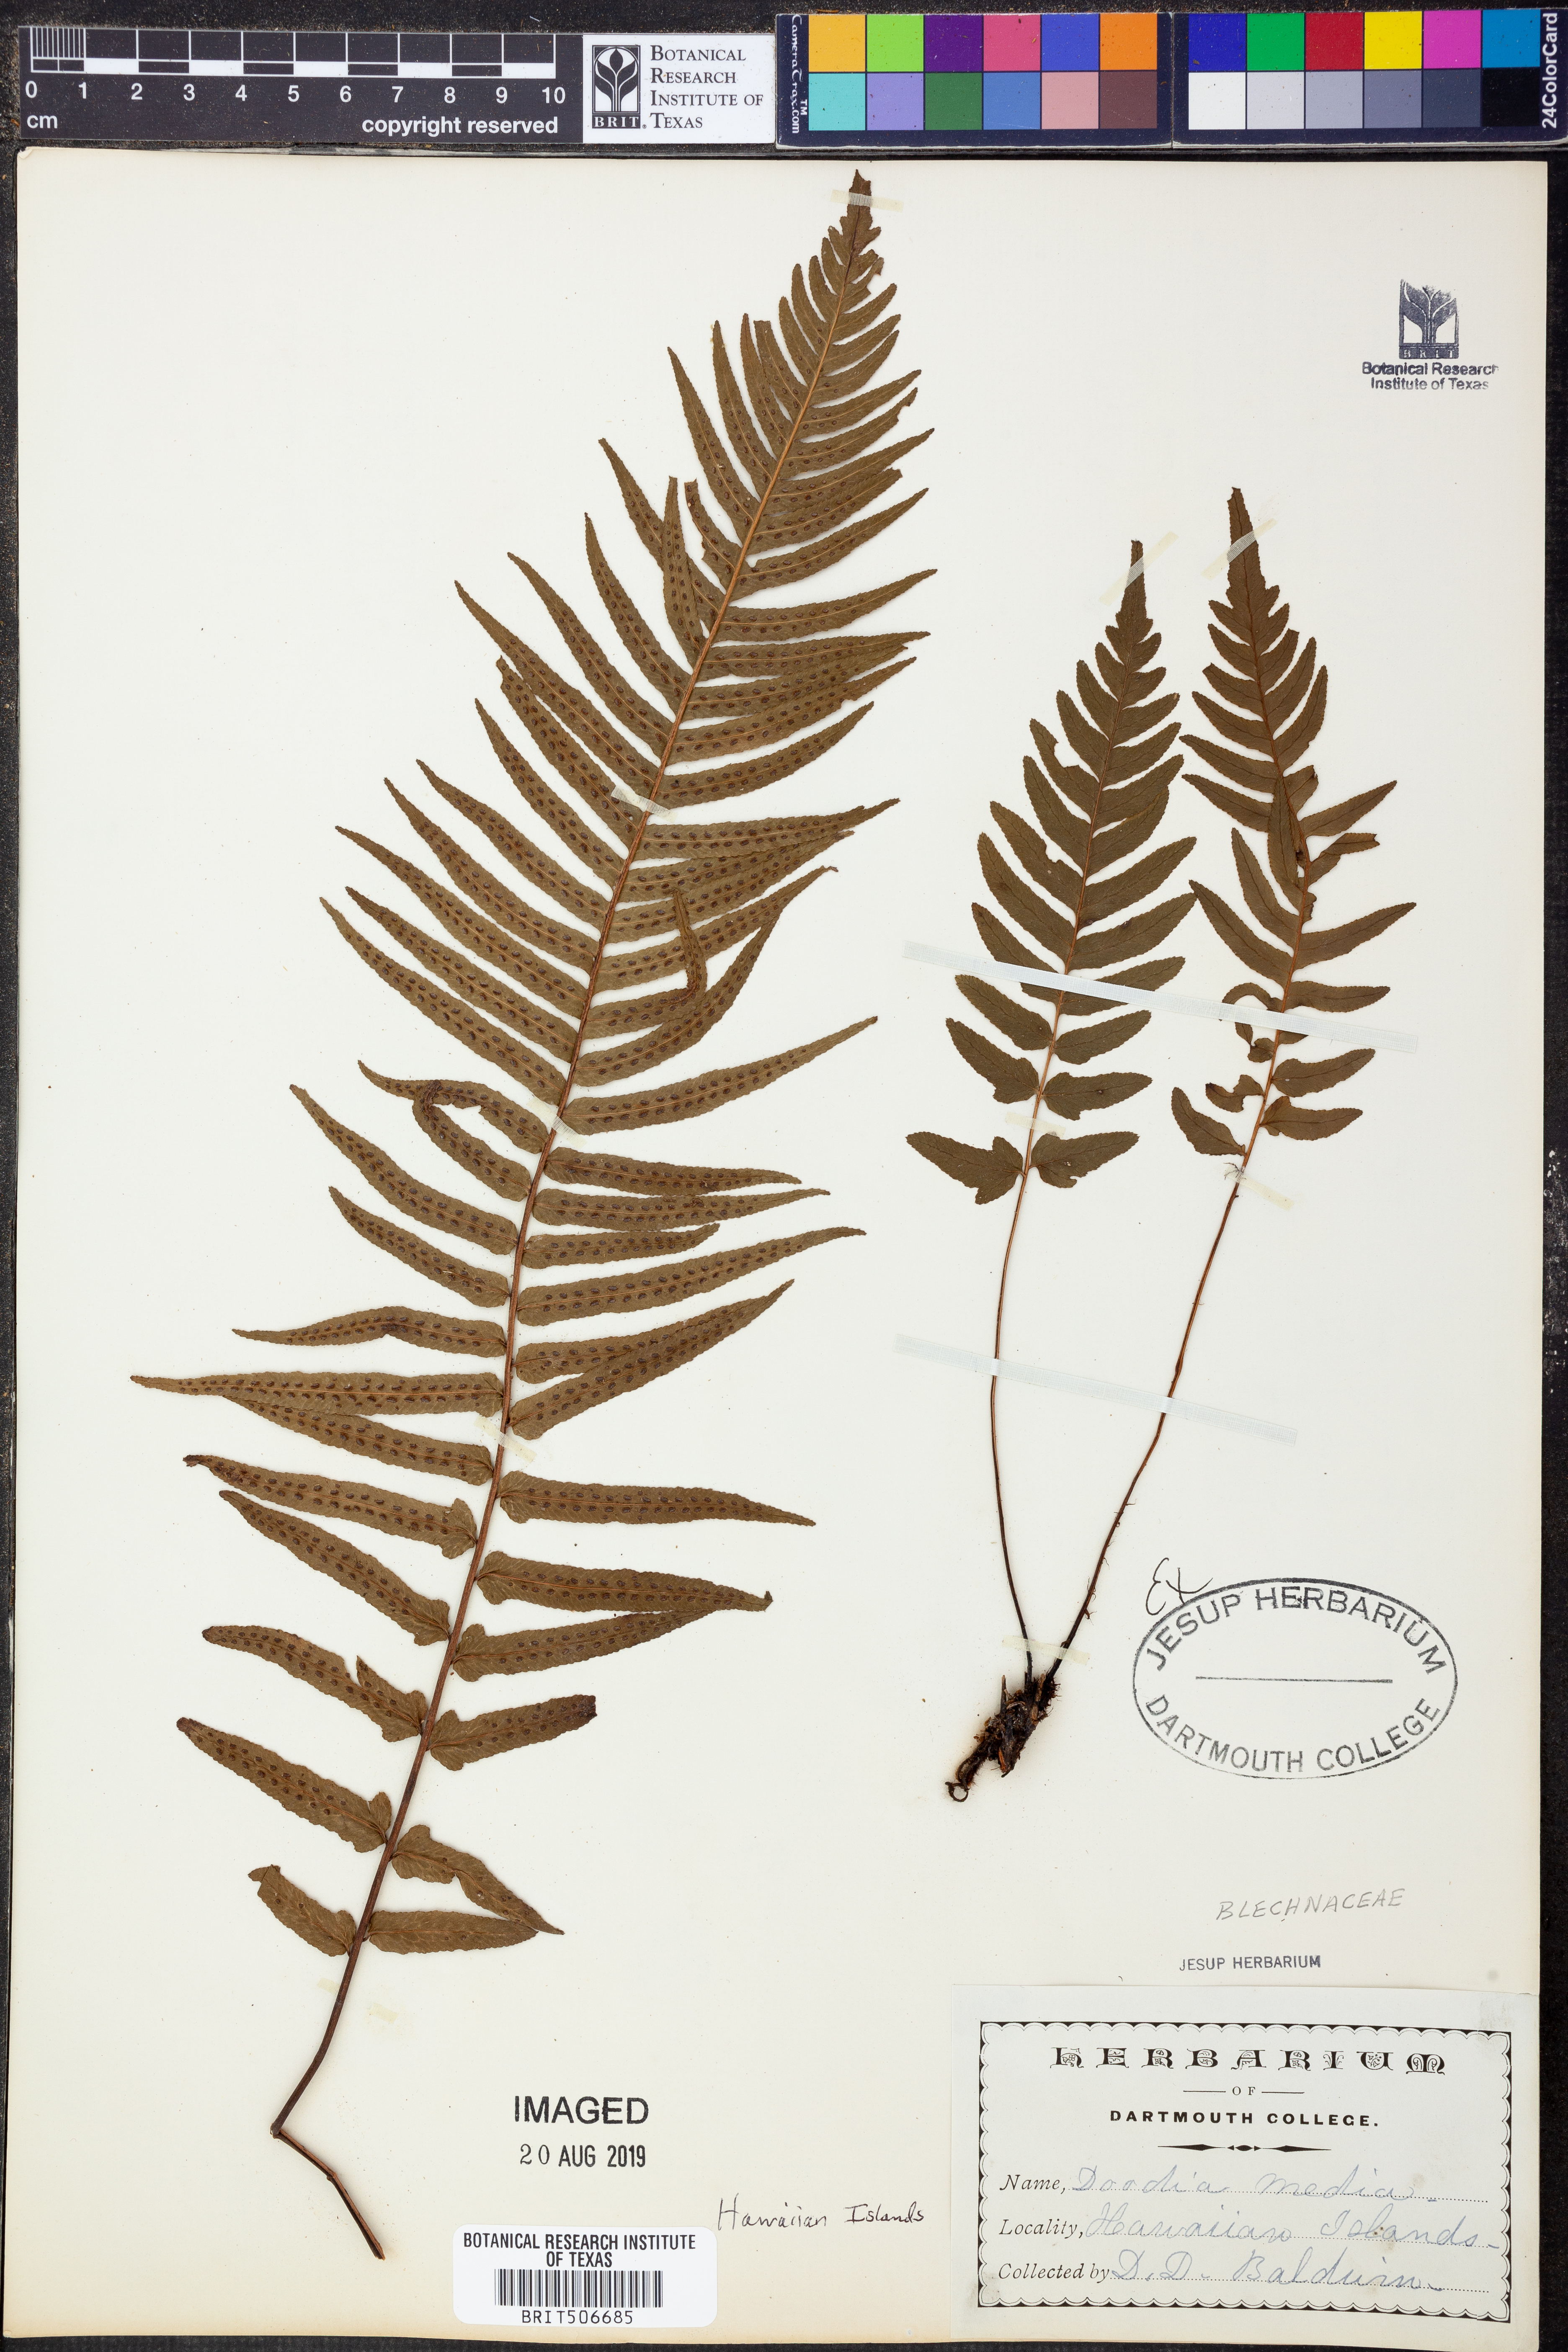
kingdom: Plantae
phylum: Tracheophyta
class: Polypodiopsida
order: Polypodiales
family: Blechnaceae
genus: Doodia
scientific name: Doodia media
